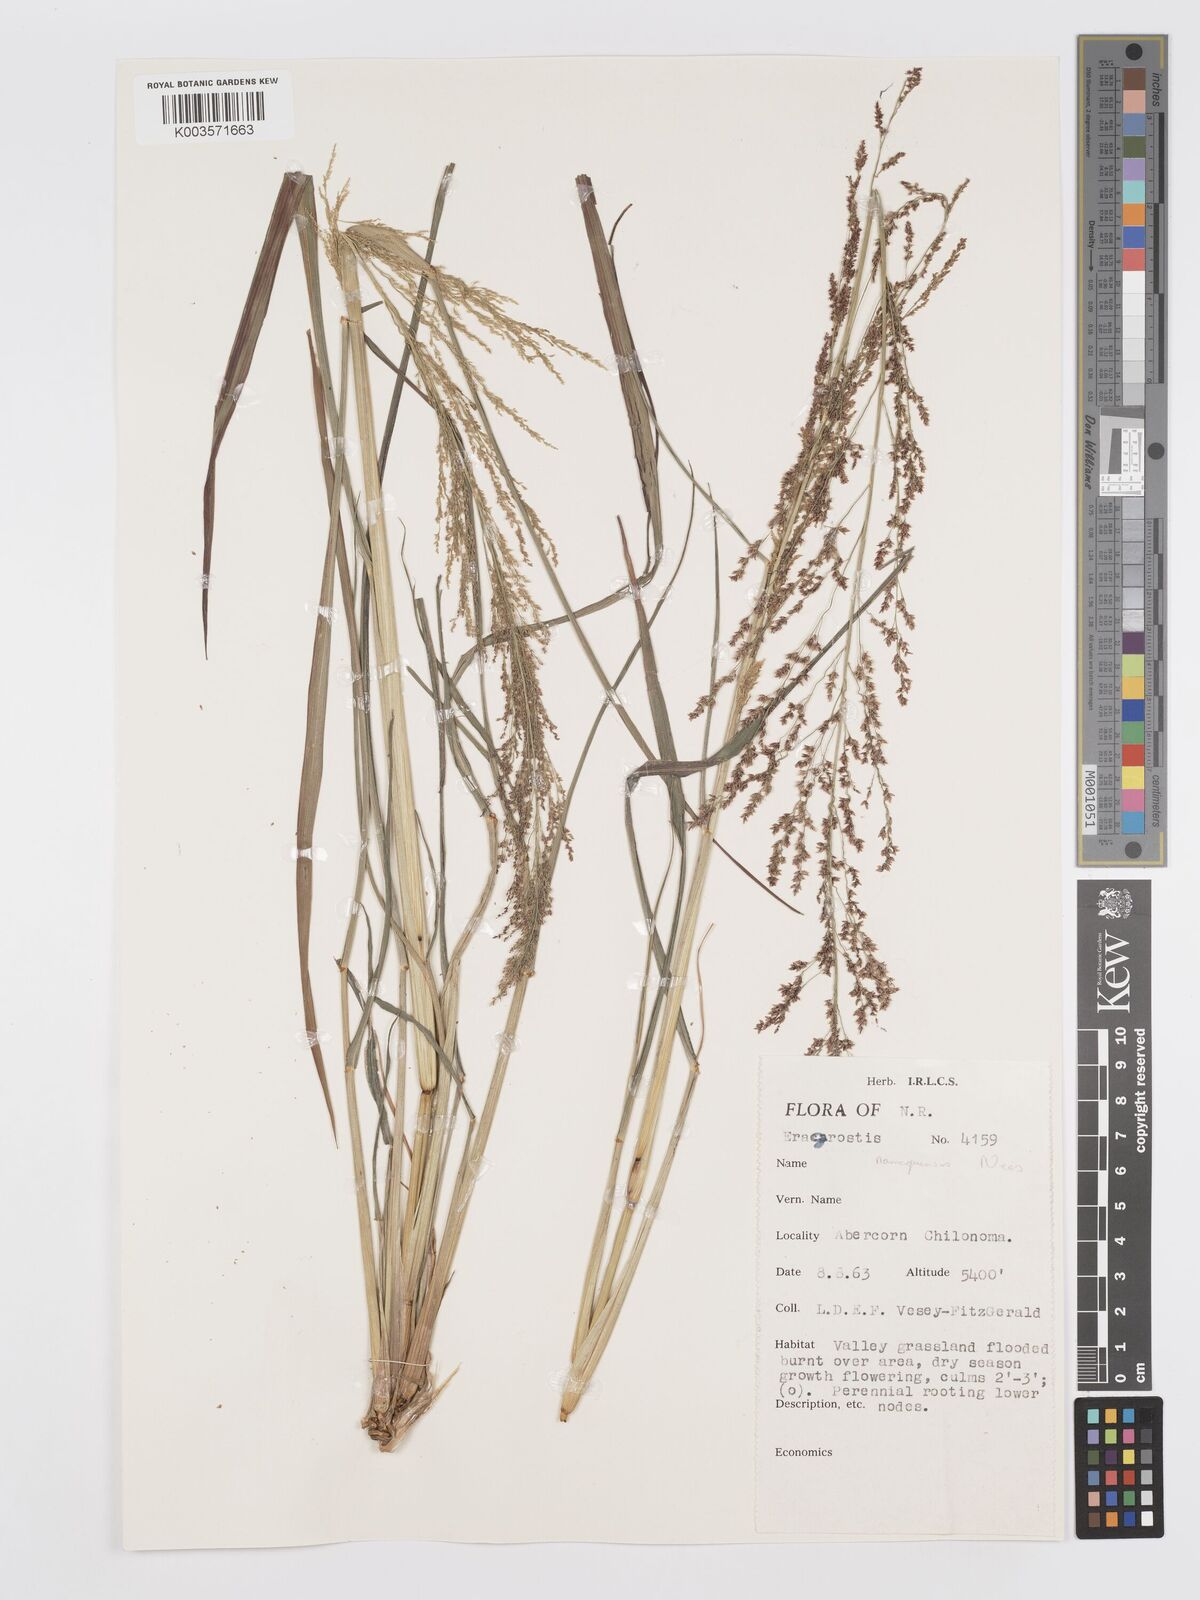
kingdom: Plantae
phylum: Tracheophyta
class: Liliopsida
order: Poales
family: Poaceae
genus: Eragrostis
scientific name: Eragrostis japonica
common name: Pond lovegrass
